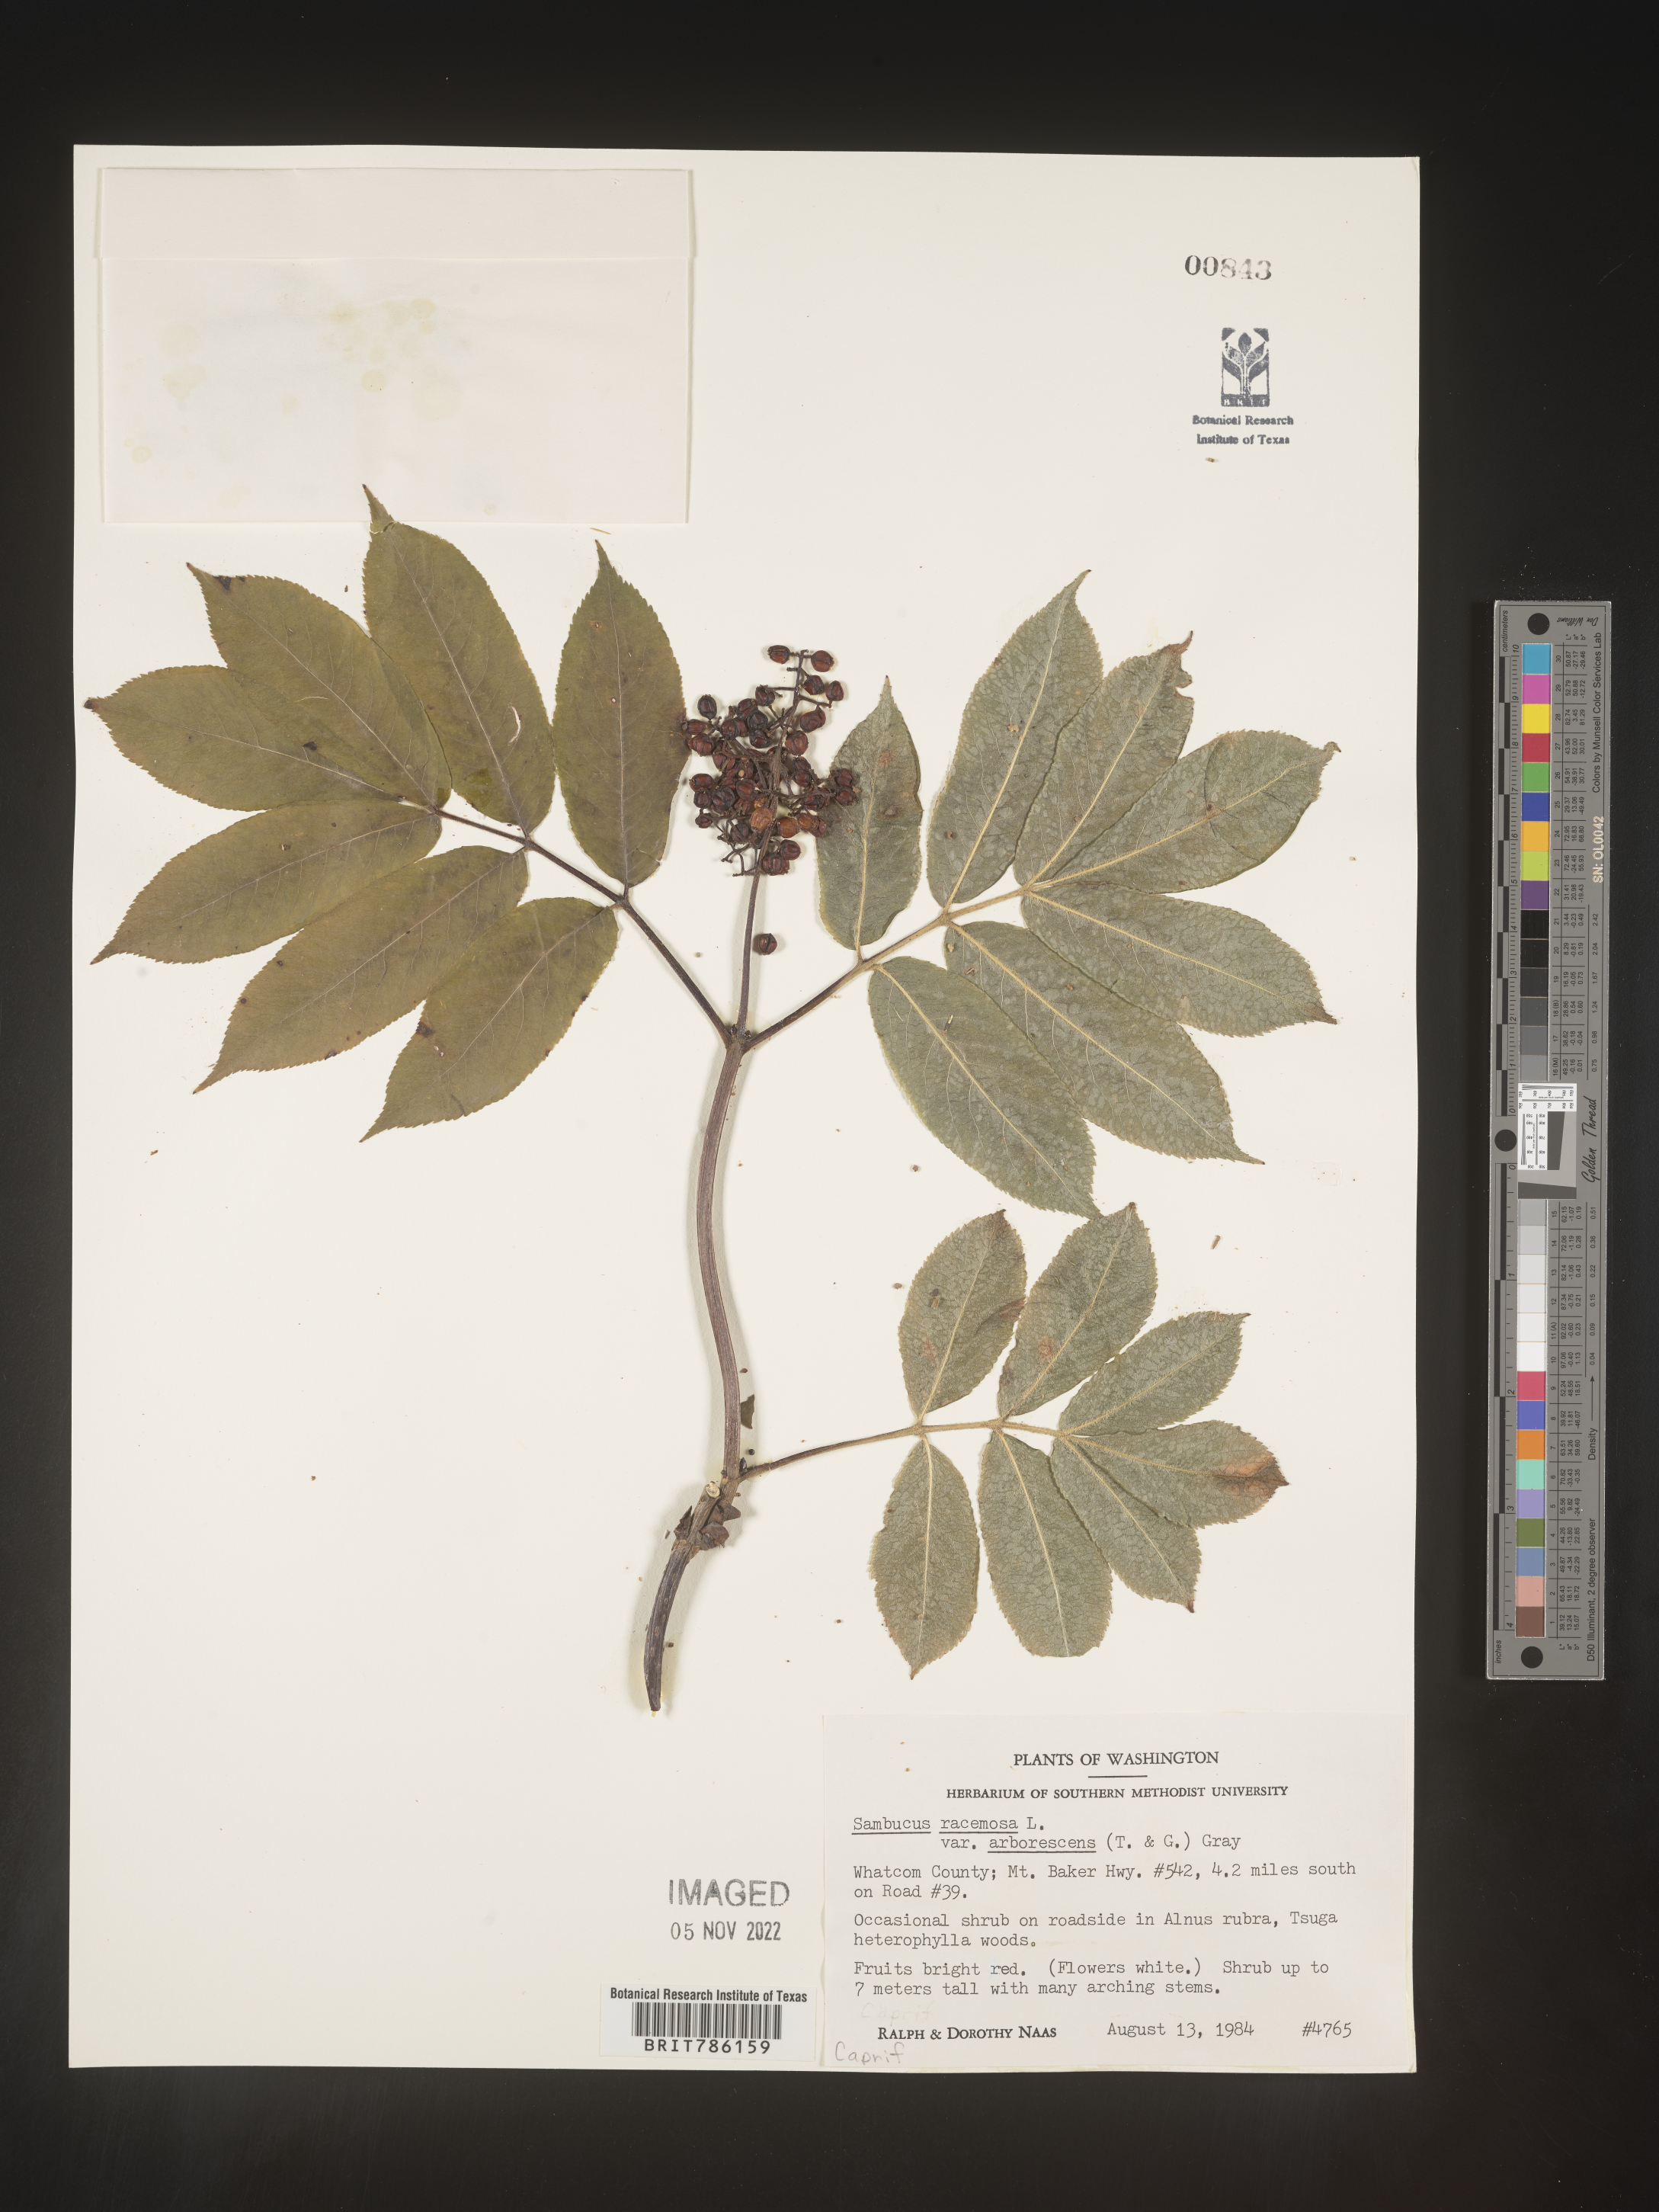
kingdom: Plantae
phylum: Tracheophyta
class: Magnoliopsida
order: Dipsacales
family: Viburnaceae
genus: Sambucus
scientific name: Sambucus
